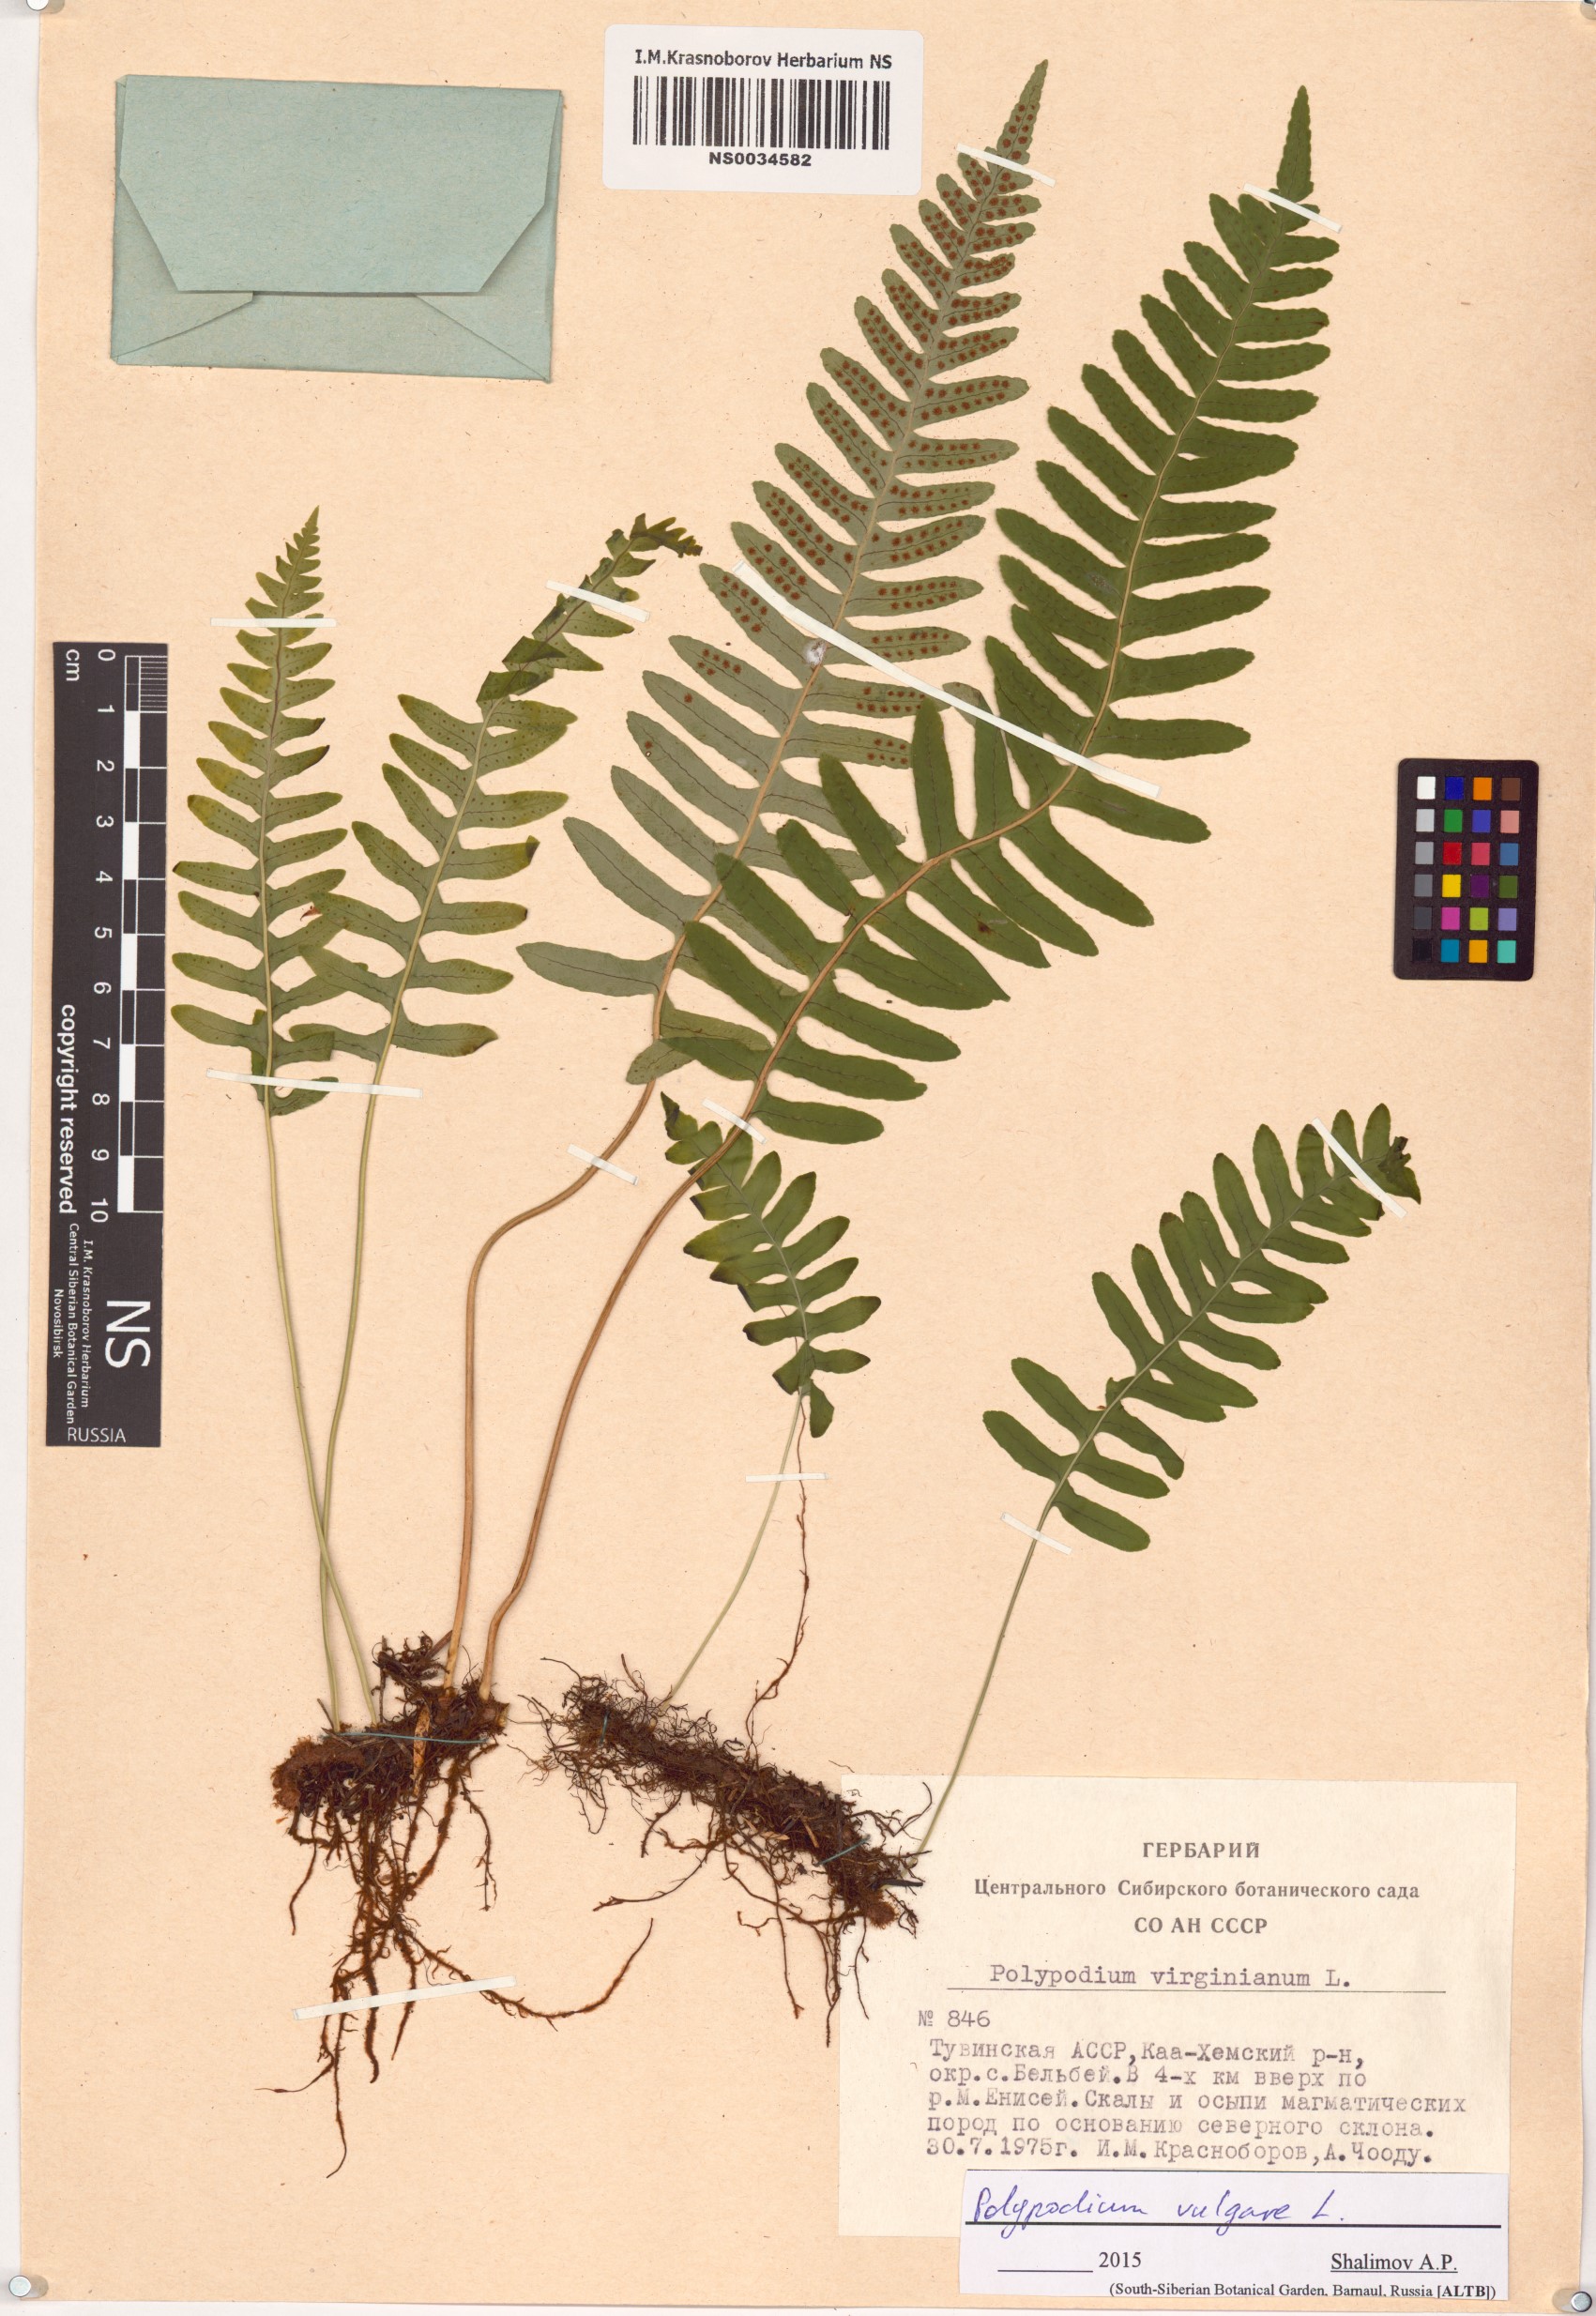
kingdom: Plantae
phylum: Tracheophyta
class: Polypodiopsida
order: Polypodiales
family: Polypodiaceae
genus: Polypodium
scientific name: Polypodium vulgare
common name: Common polypody
